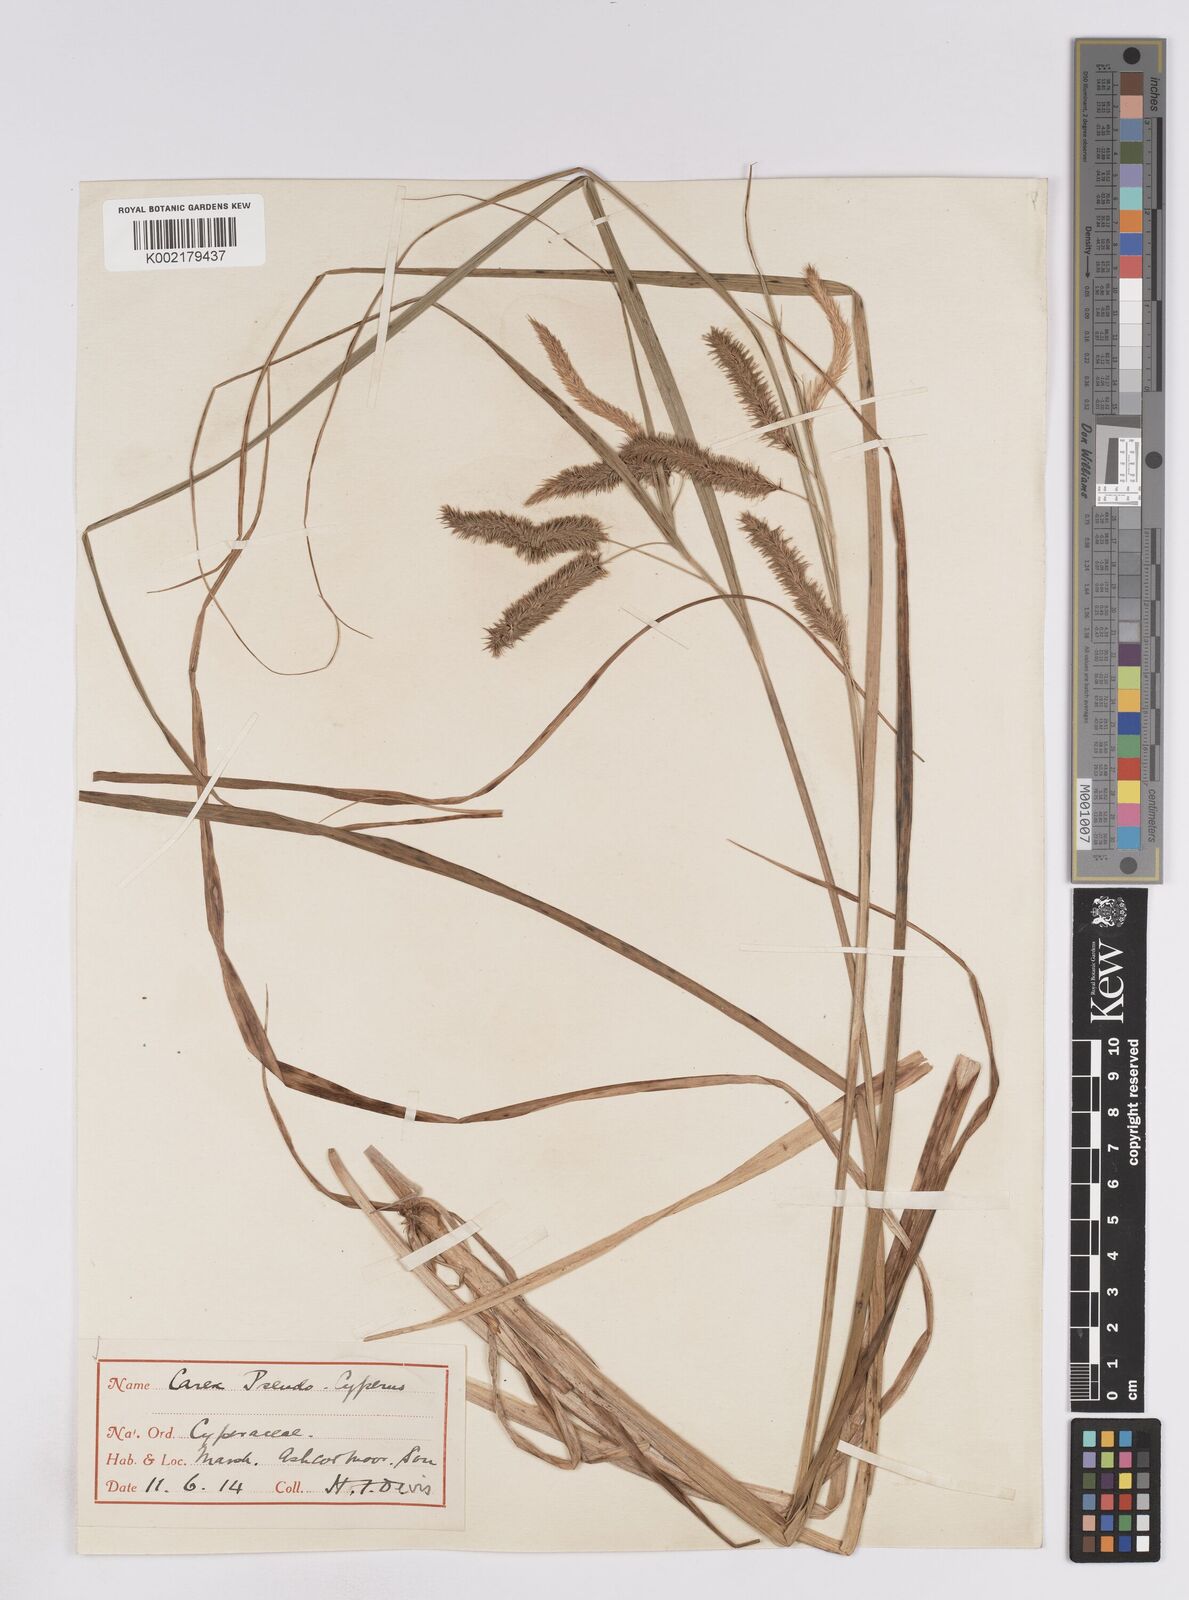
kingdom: Plantae
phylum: Tracheophyta
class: Liliopsida
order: Poales
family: Cyperaceae
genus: Carex
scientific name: Carex pseudocyperus
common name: Cyperus sedge
